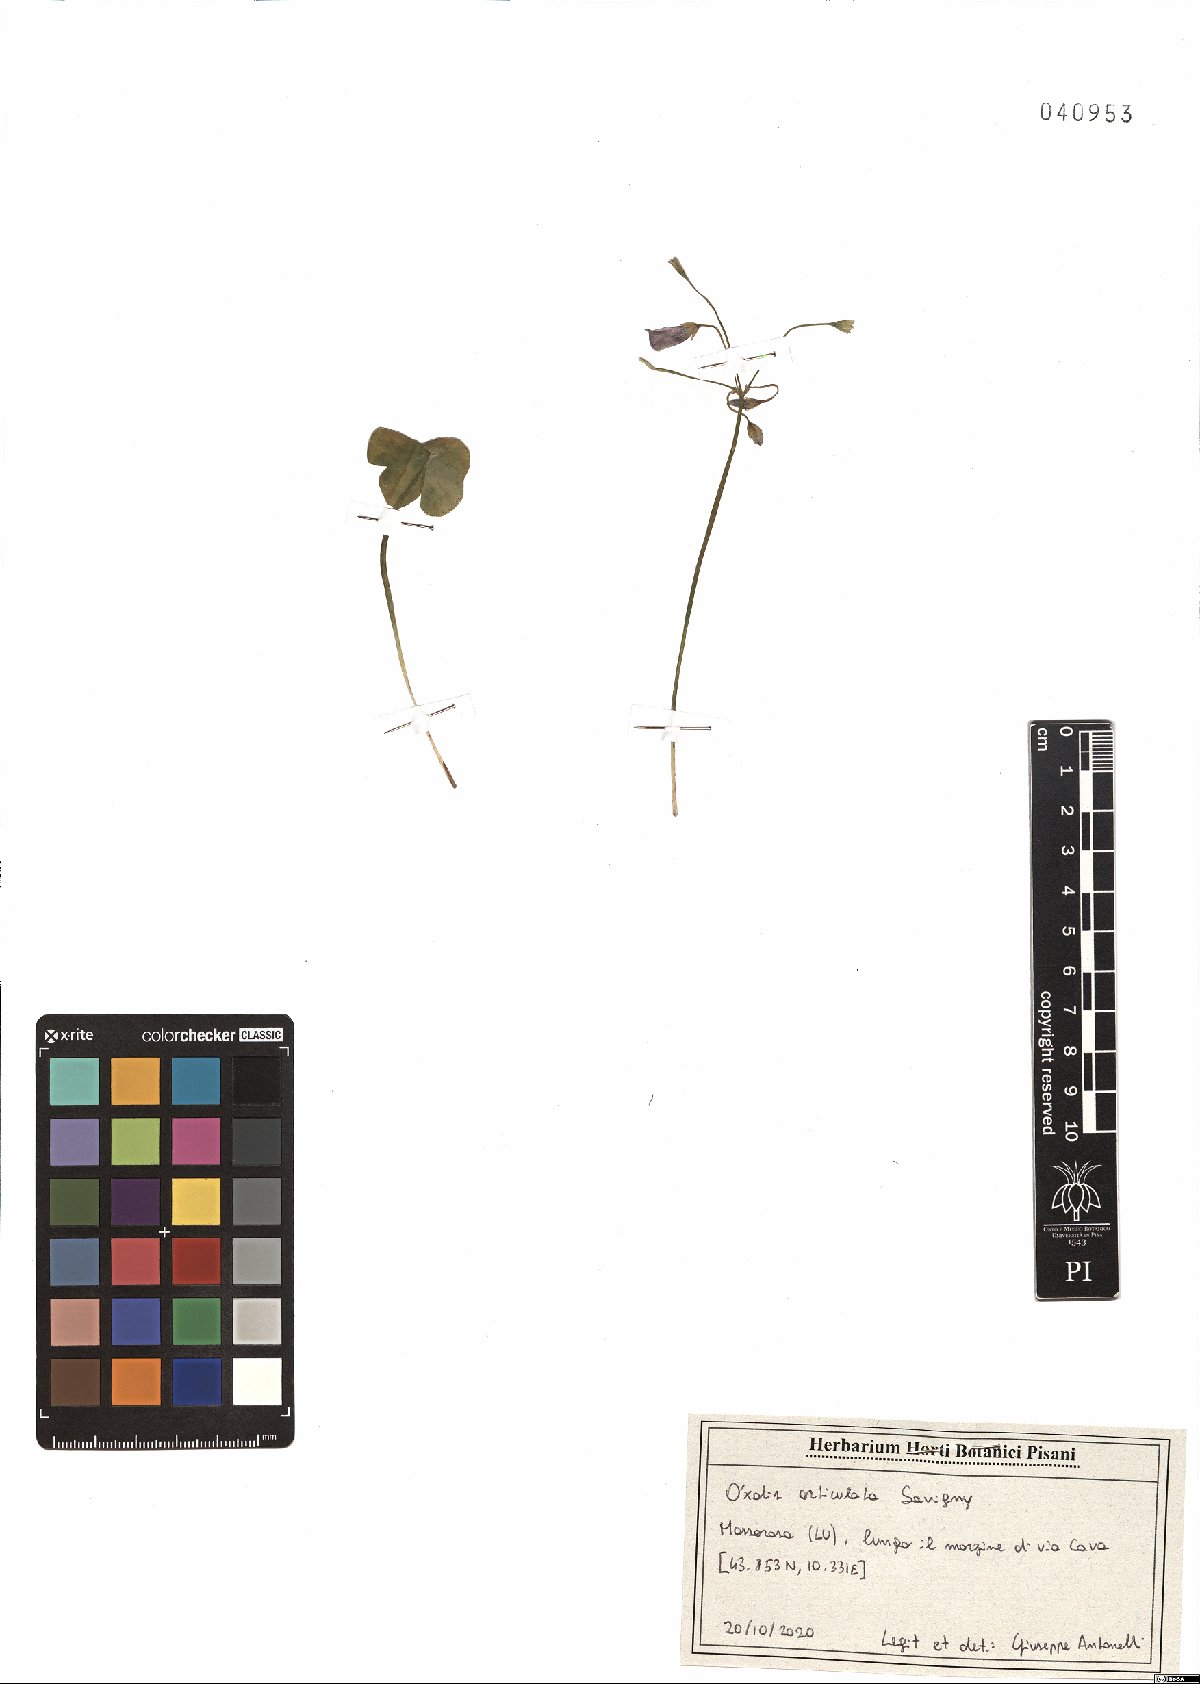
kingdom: Plantae
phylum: Tracheophyta
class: Magnoliopsida
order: Oxalidales
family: Oxalidaceae
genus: Oxalis
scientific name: Oxalis articulata
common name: Pink-sorrel
